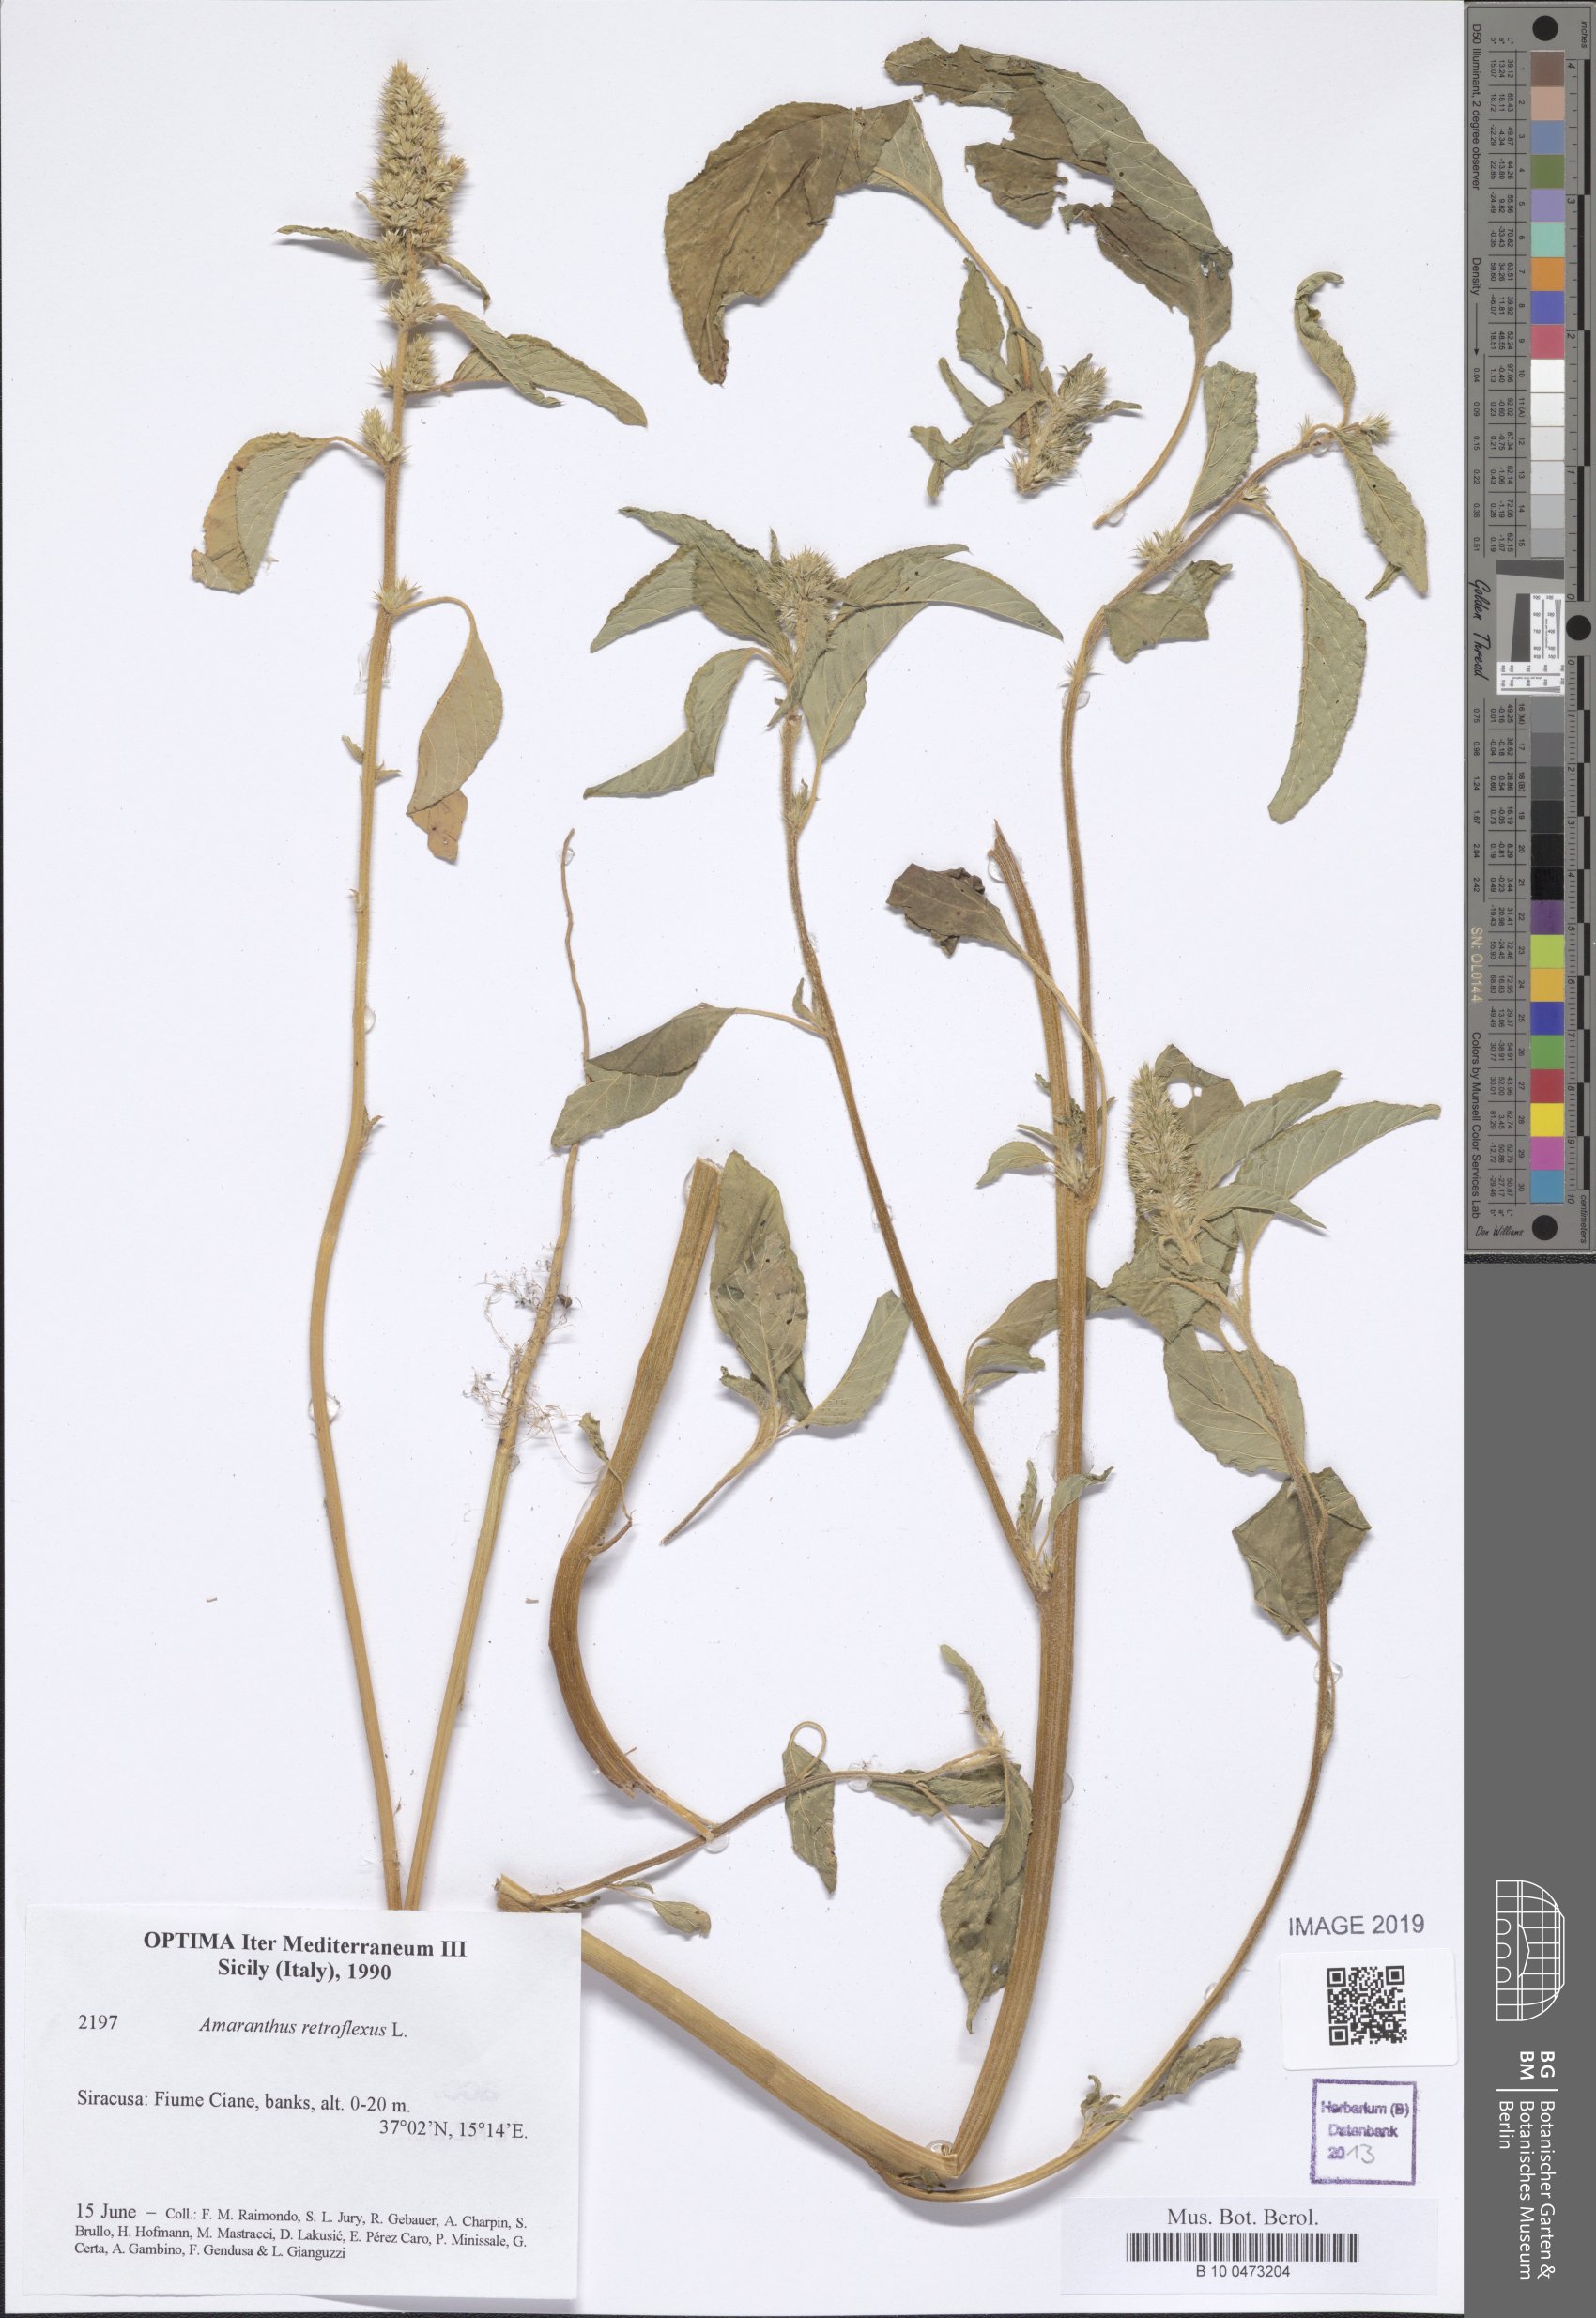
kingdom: Plantae
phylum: Tracheophyta
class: Magnoliopsida
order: Caryophyllales
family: Amaranthaceae
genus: Amaranthus
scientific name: Amaranthus retroflexus
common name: Redroot amaranth
